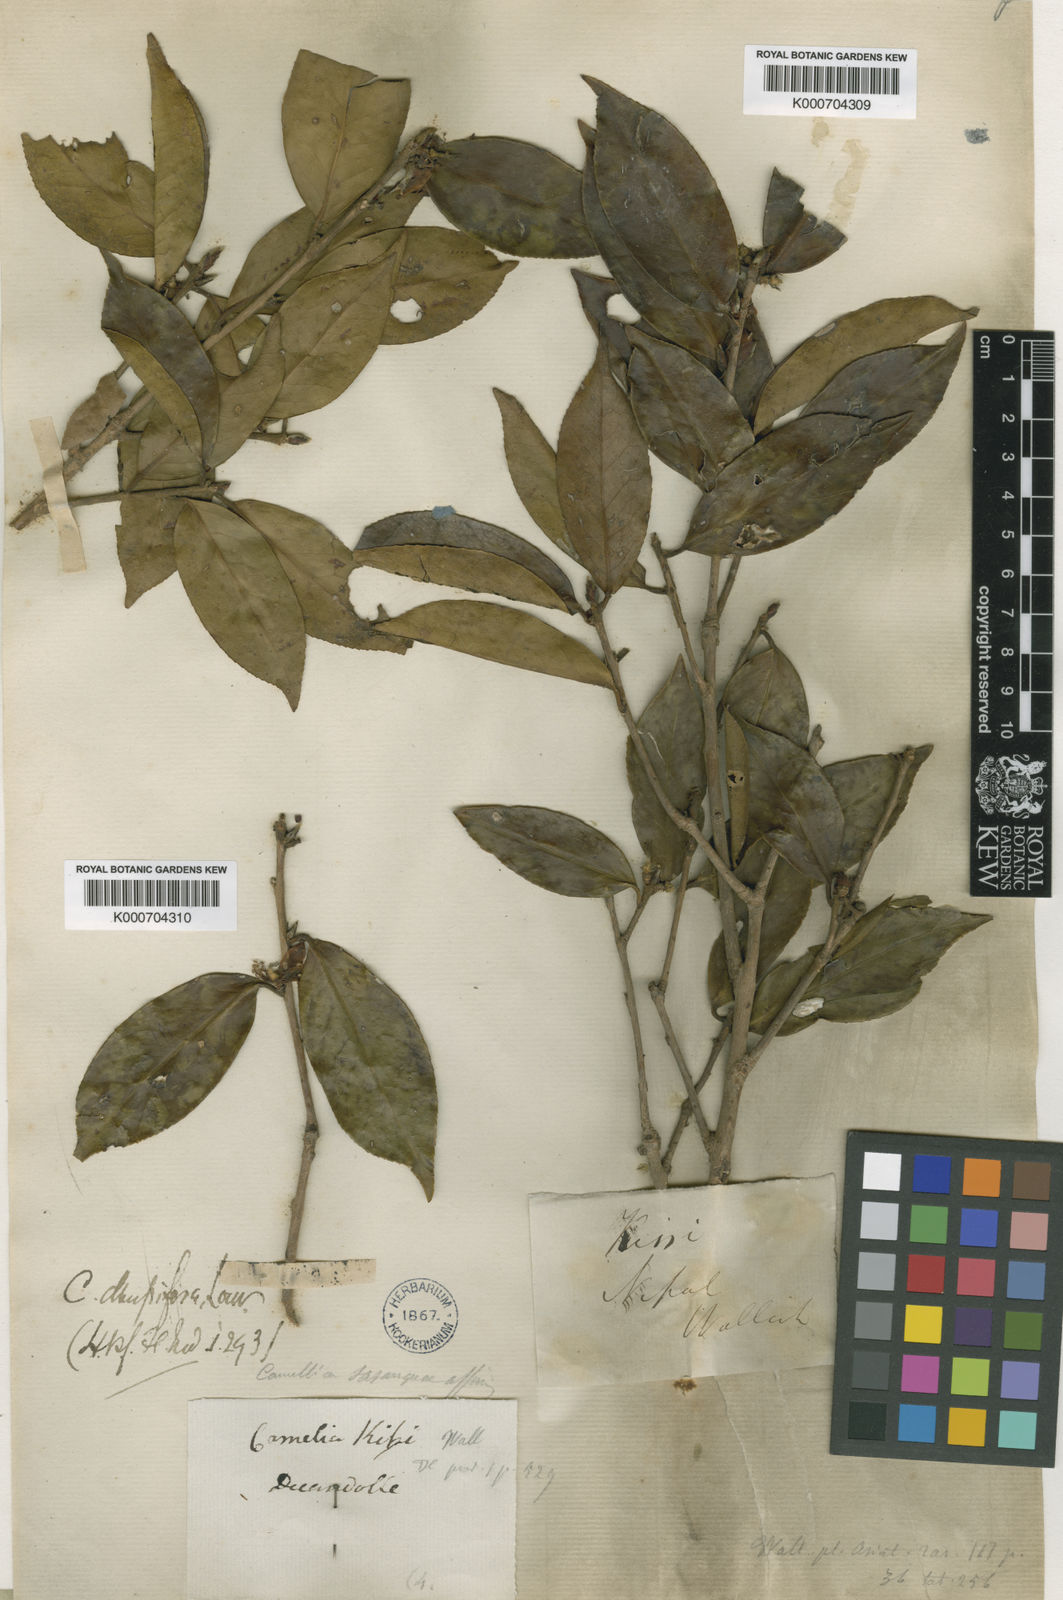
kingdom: Plantae
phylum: Tracheophyta
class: Magnoliopsida
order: Ericales
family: Theaceae
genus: Camellia
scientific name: Camellia kissii
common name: Nepal camellia
